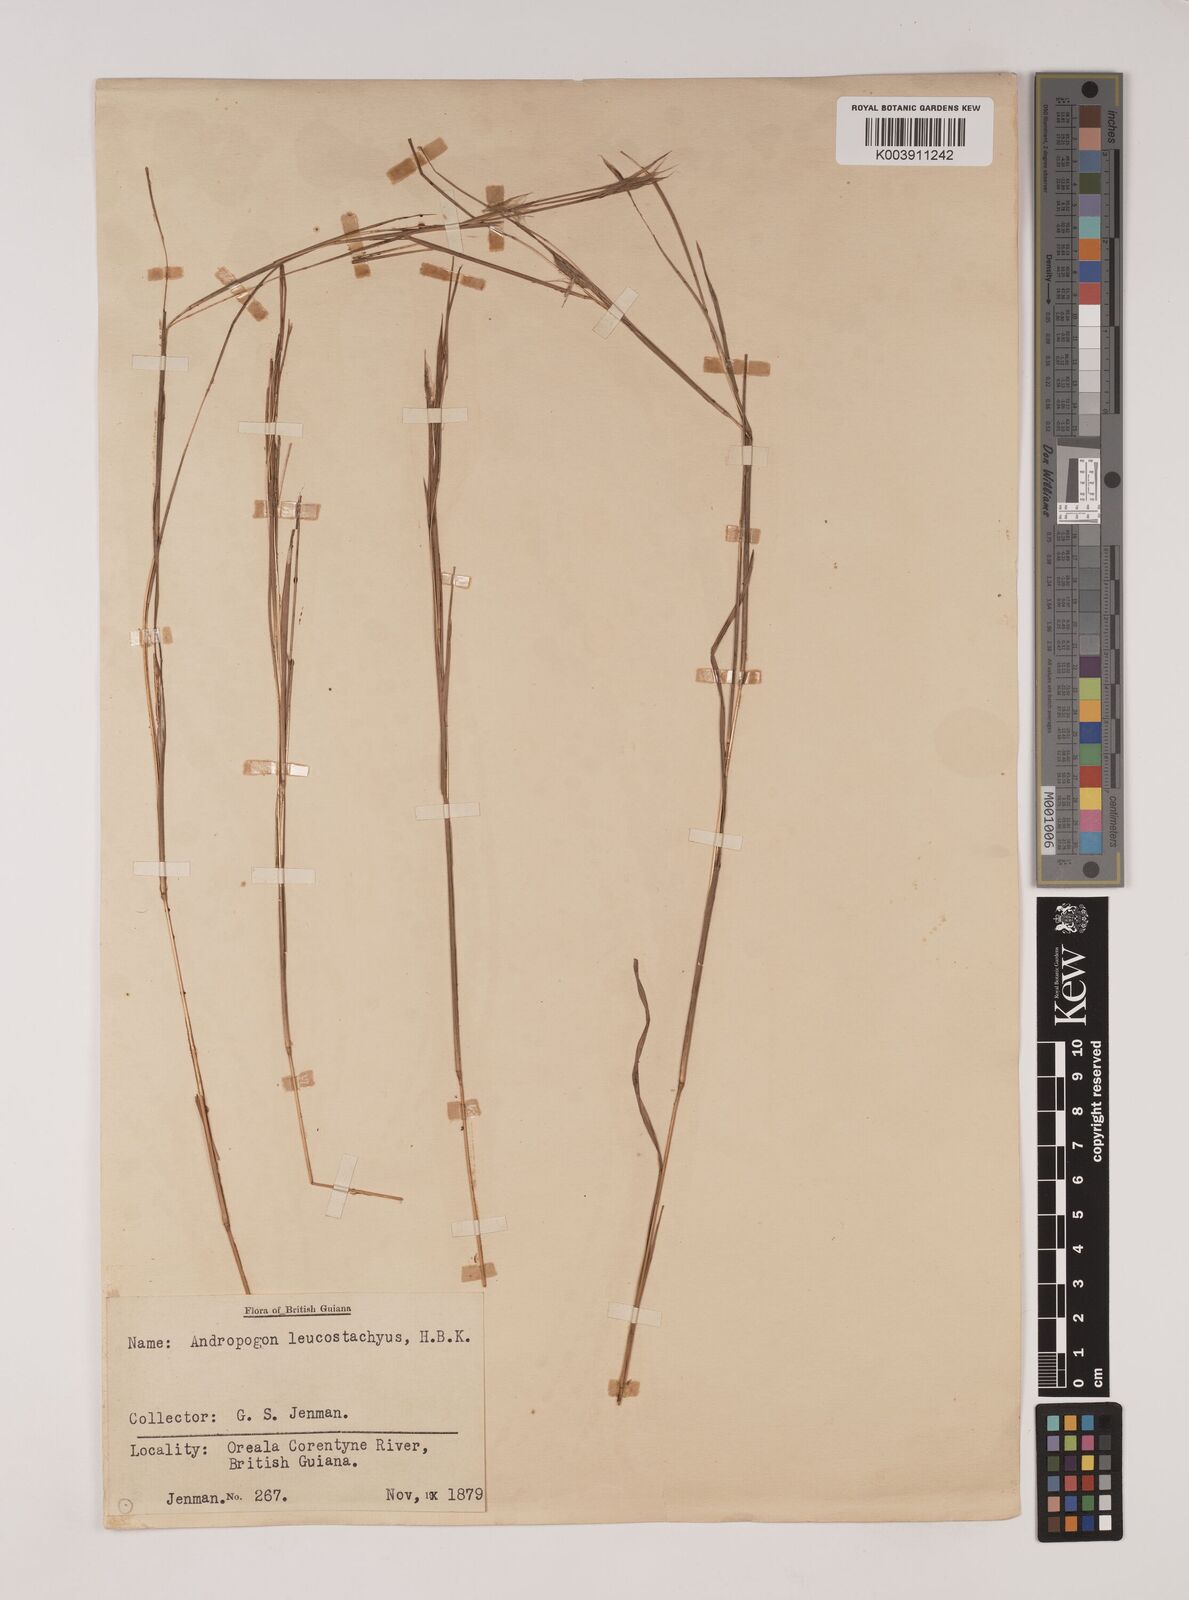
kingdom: Plantae
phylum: Tracheophyta
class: Liliopsida
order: Poales
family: Poaceae
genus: Andropogon
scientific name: Andropogon leucostachyus
